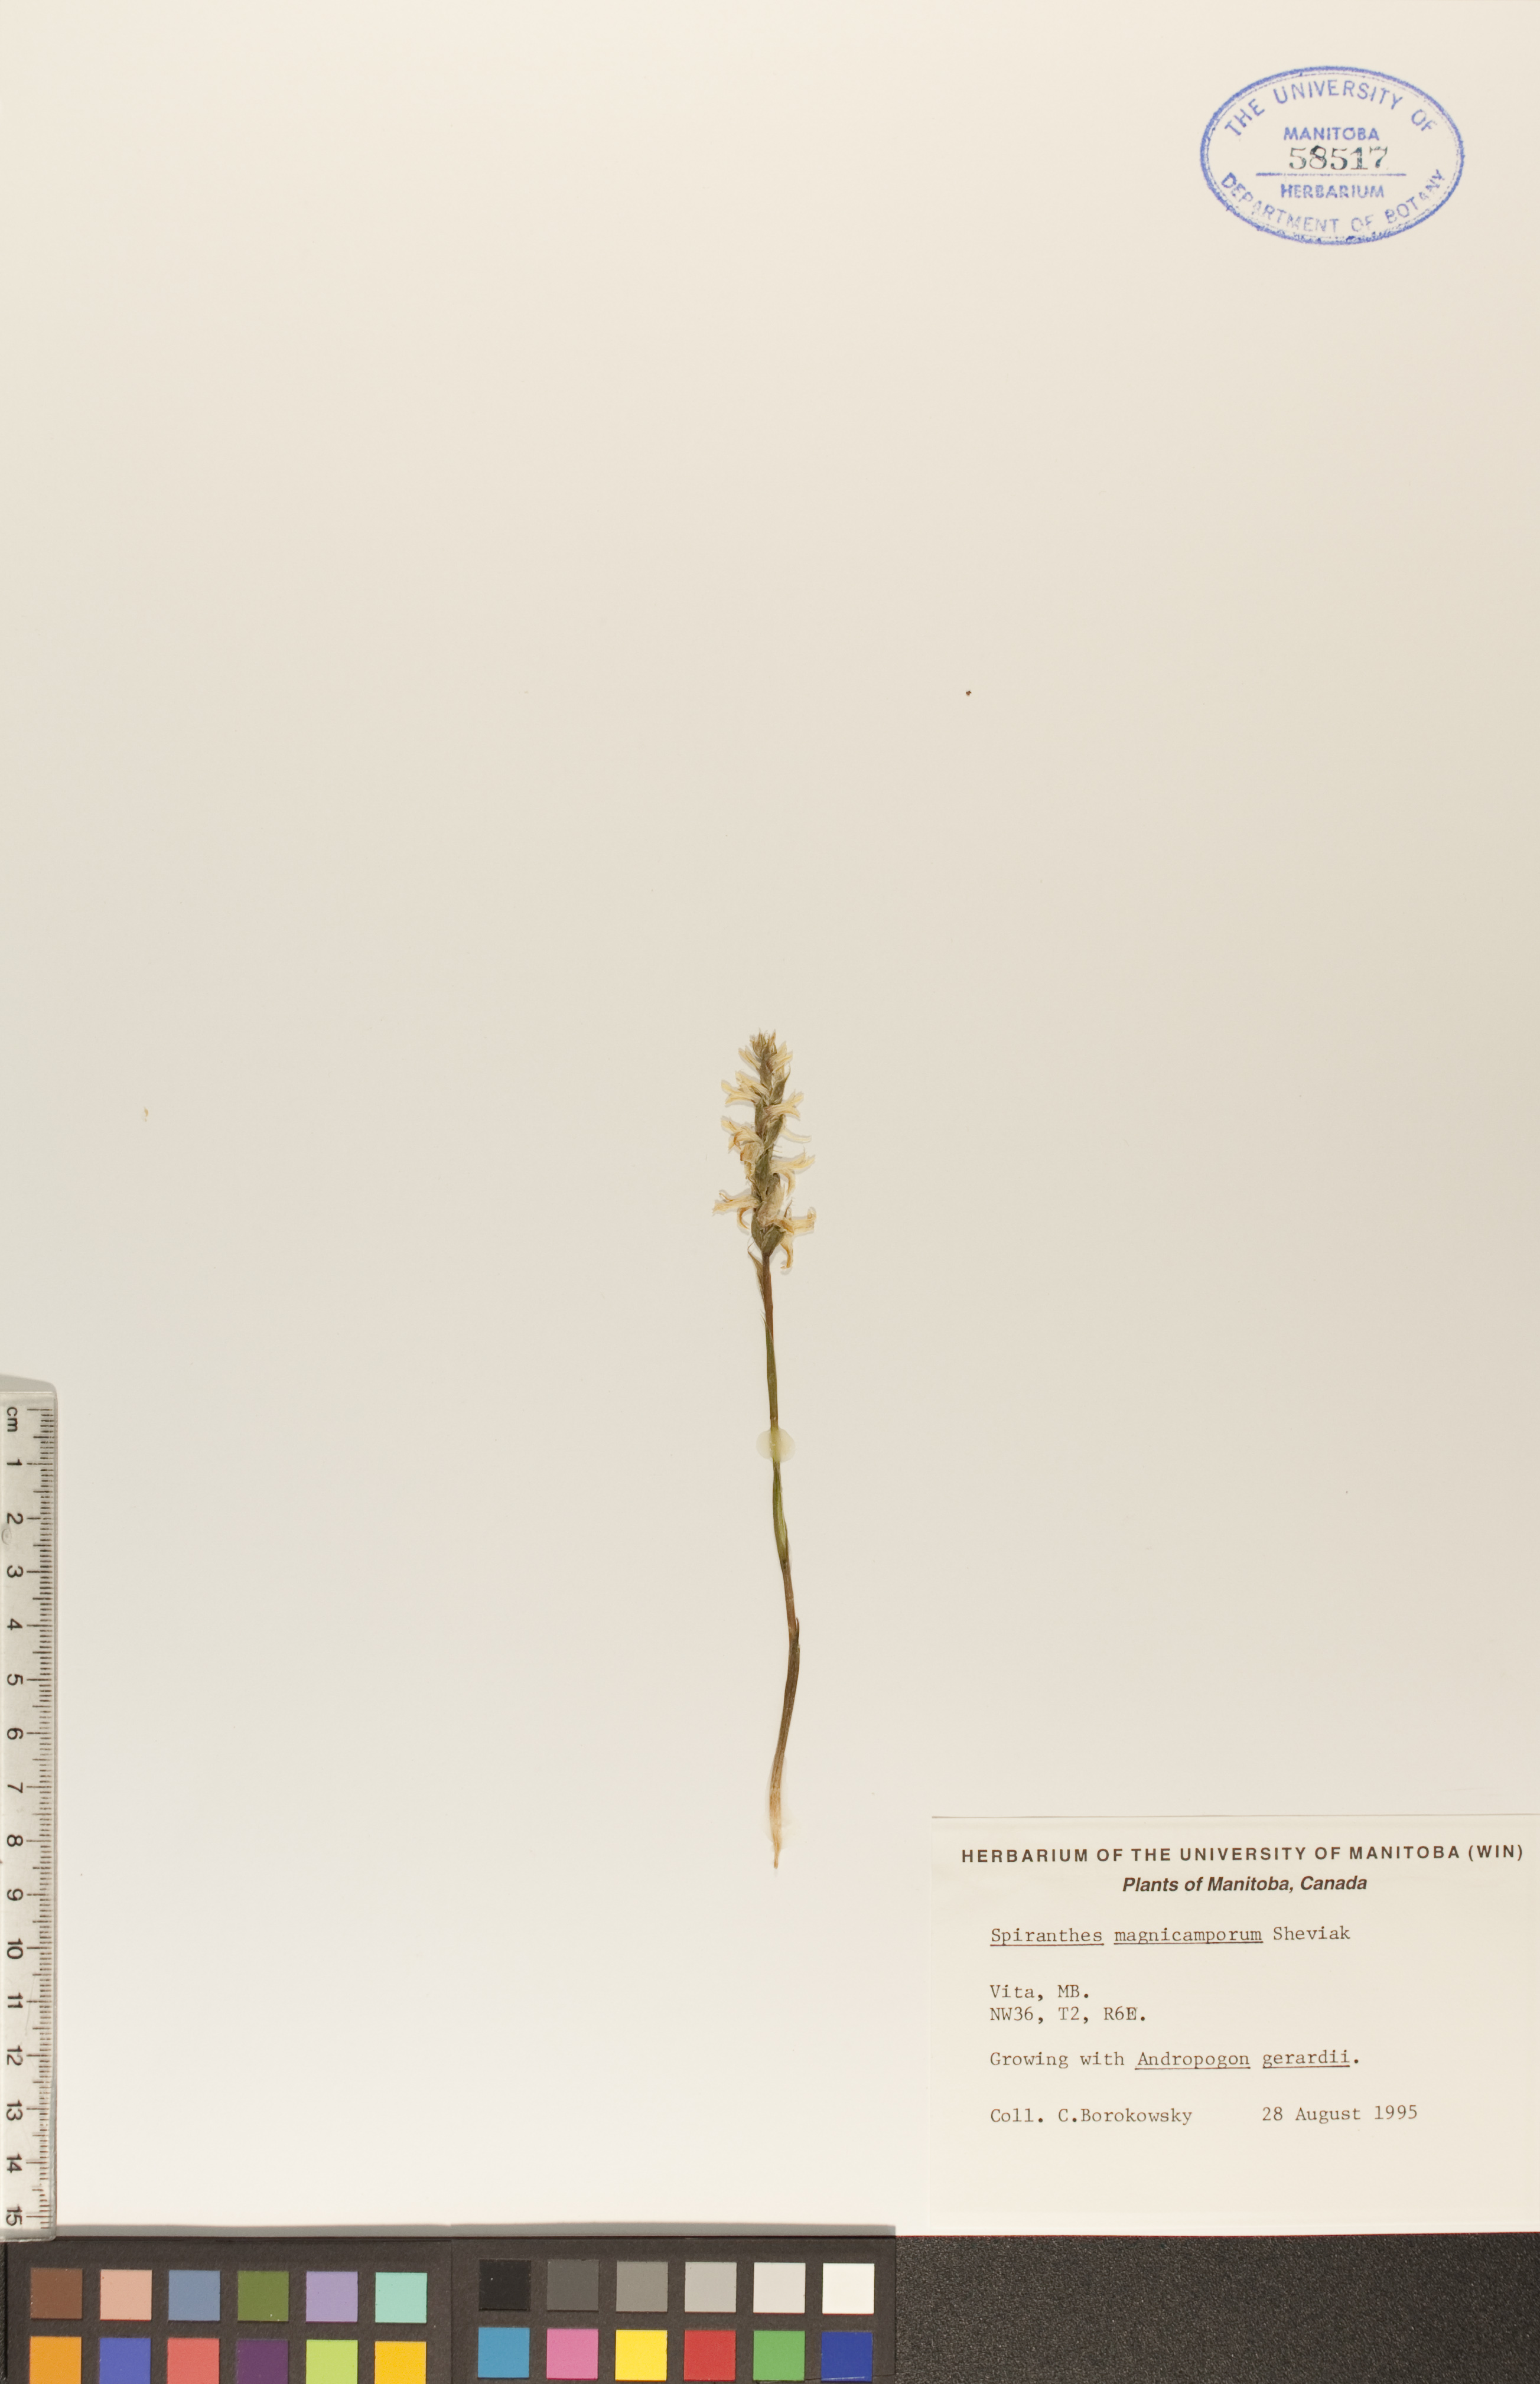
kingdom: Plantae
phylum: Tracheophyta
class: Liliopsida
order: Asparagales
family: Orchidaceae
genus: Spiranthes
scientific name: Spiranthes magnicamporum
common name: Great plains ladies'-tresses
